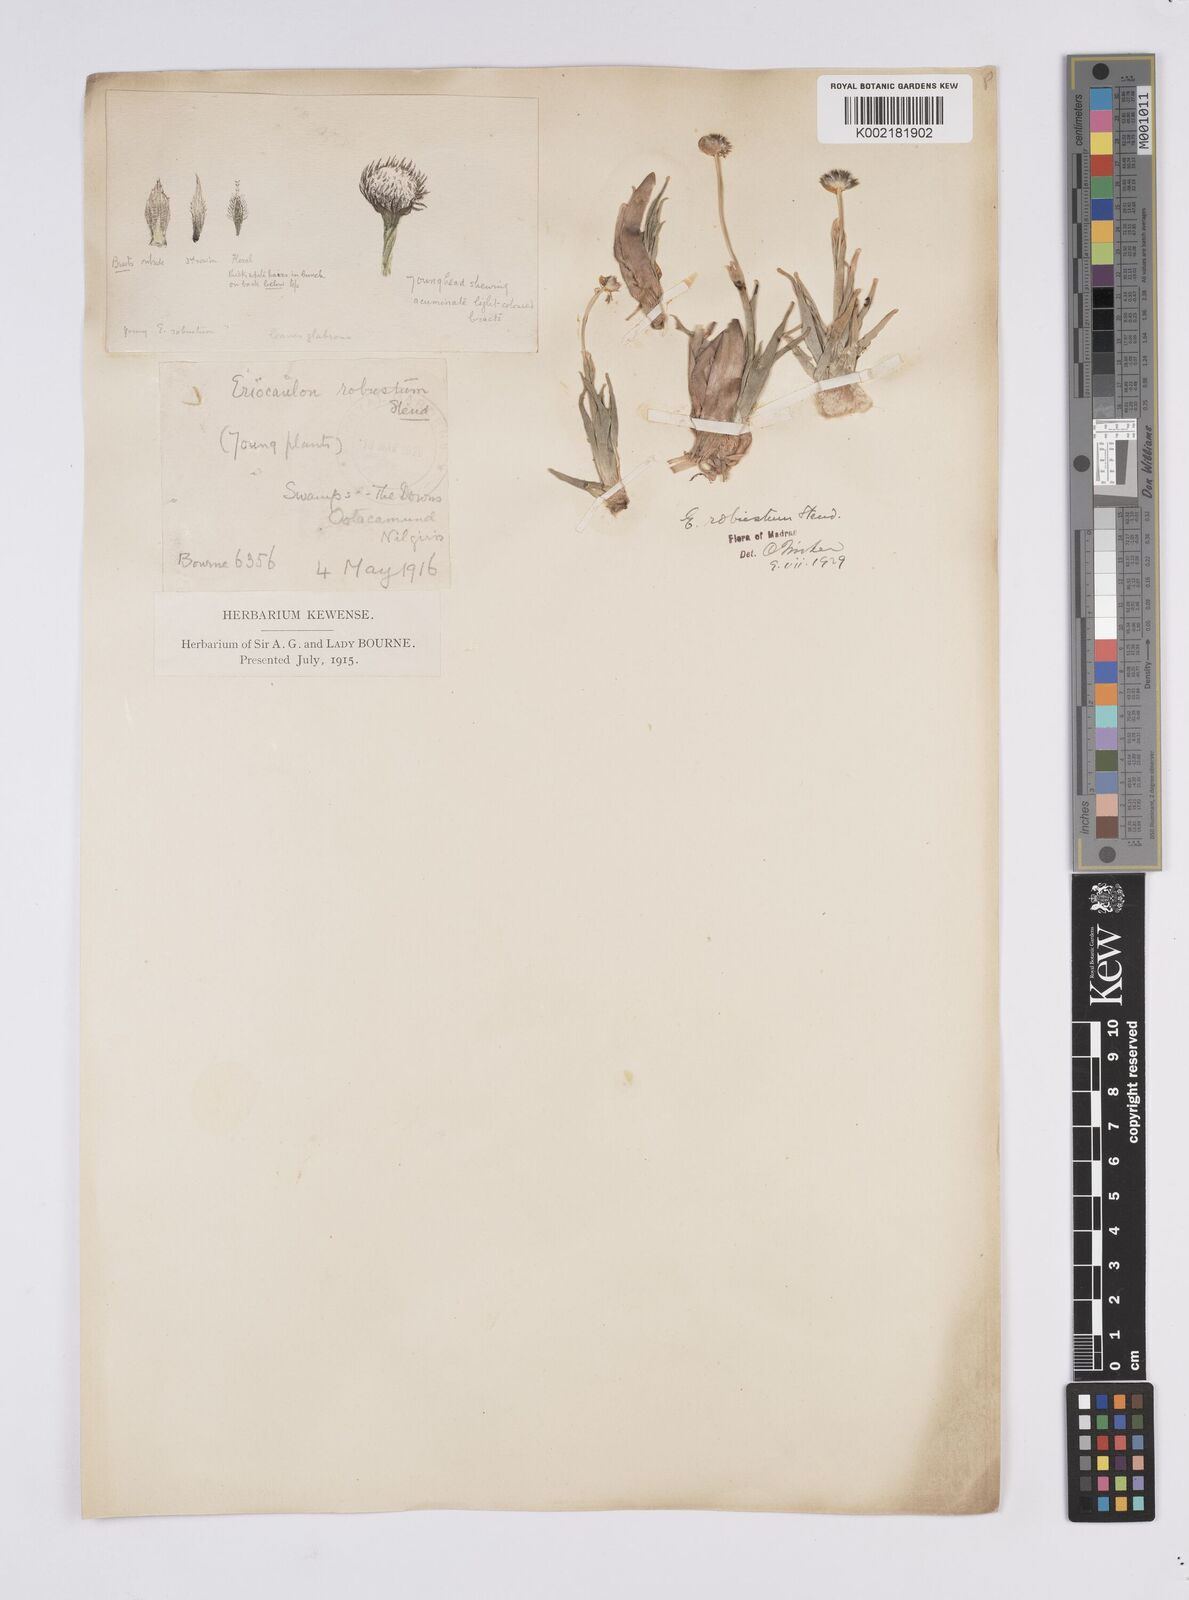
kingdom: Plantae
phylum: Tracheophyta
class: Liliopsida
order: Poales
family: Eriocaulaceae
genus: Eriocaulon
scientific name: Eriocaulon robustum
